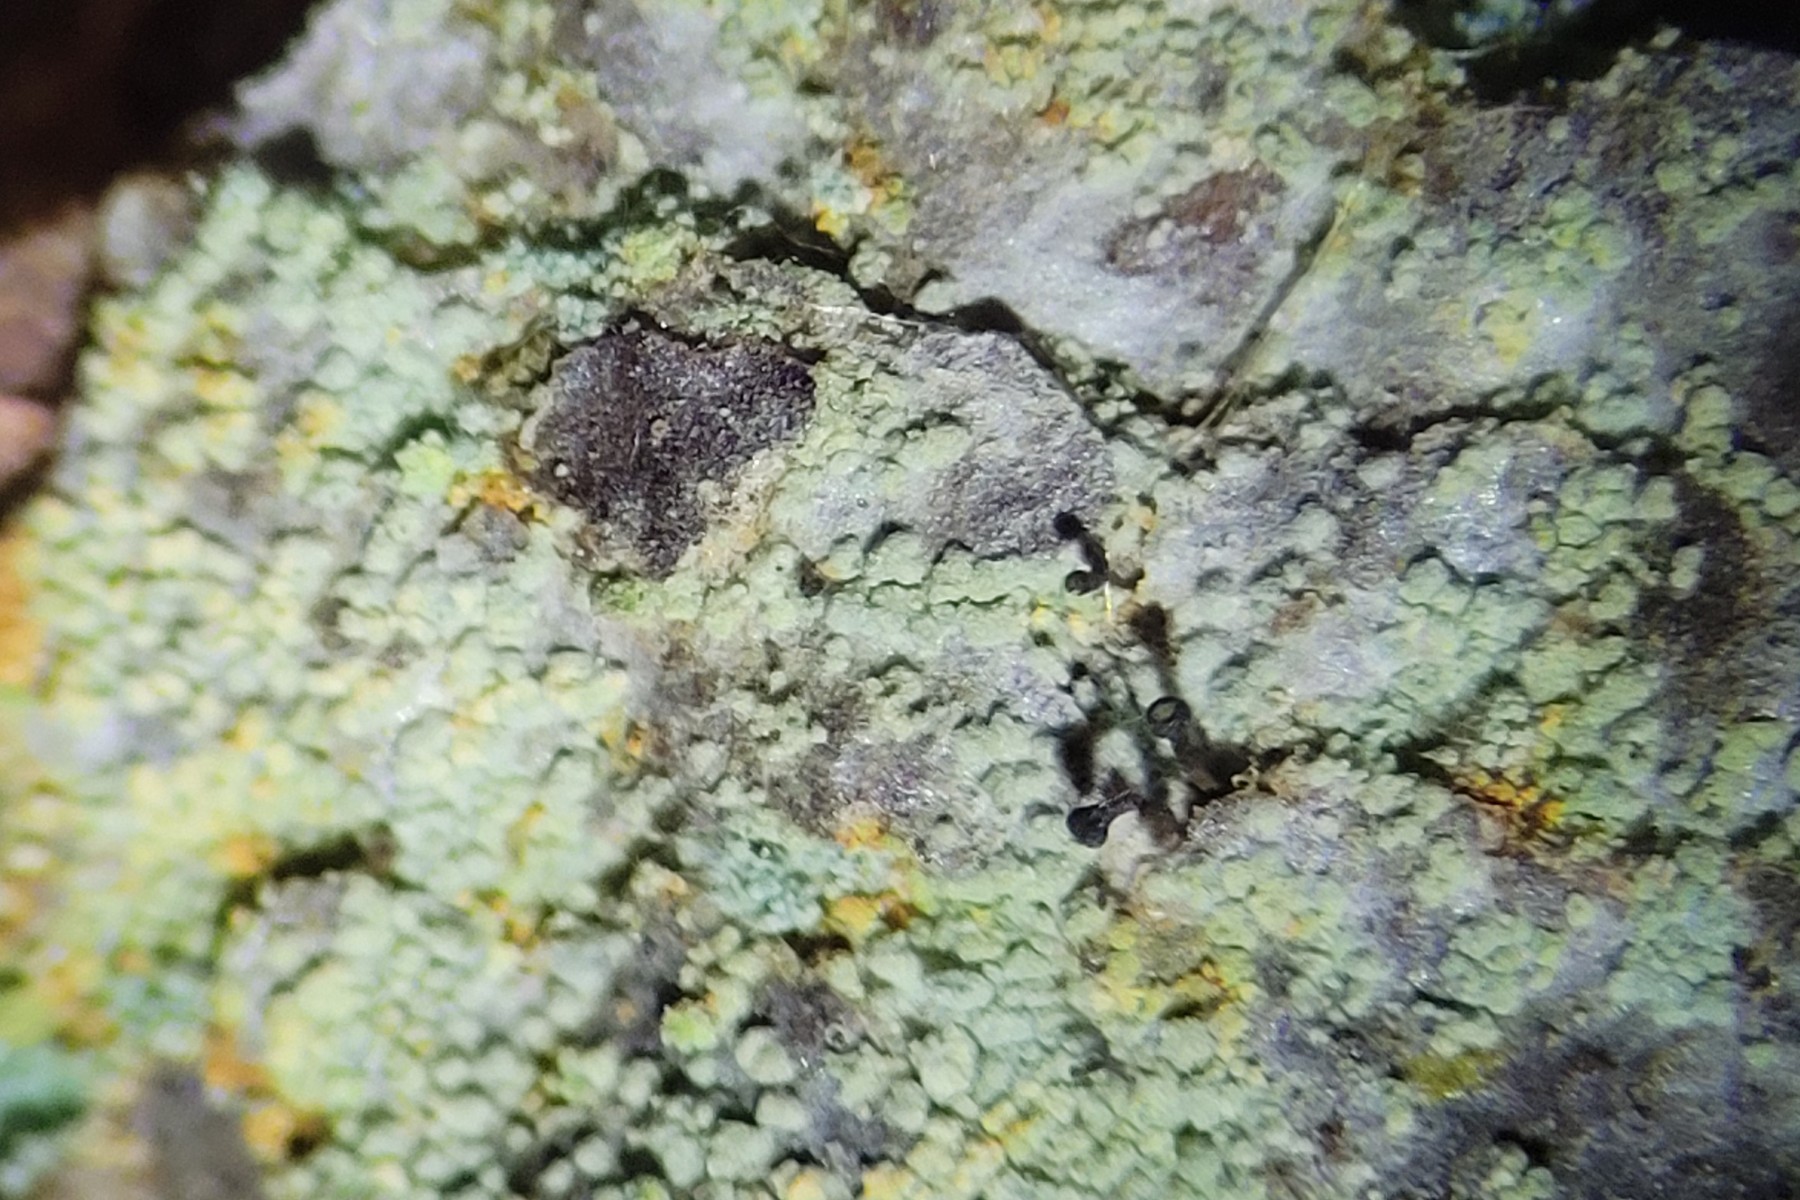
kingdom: Fungi
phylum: Ascomycota
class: Coniocybomycetes
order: Coniocybales
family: Coniocybaceae
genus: Chaenotheca
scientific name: Chaenotheca ferruginea
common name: rustbrun knappenålslav
